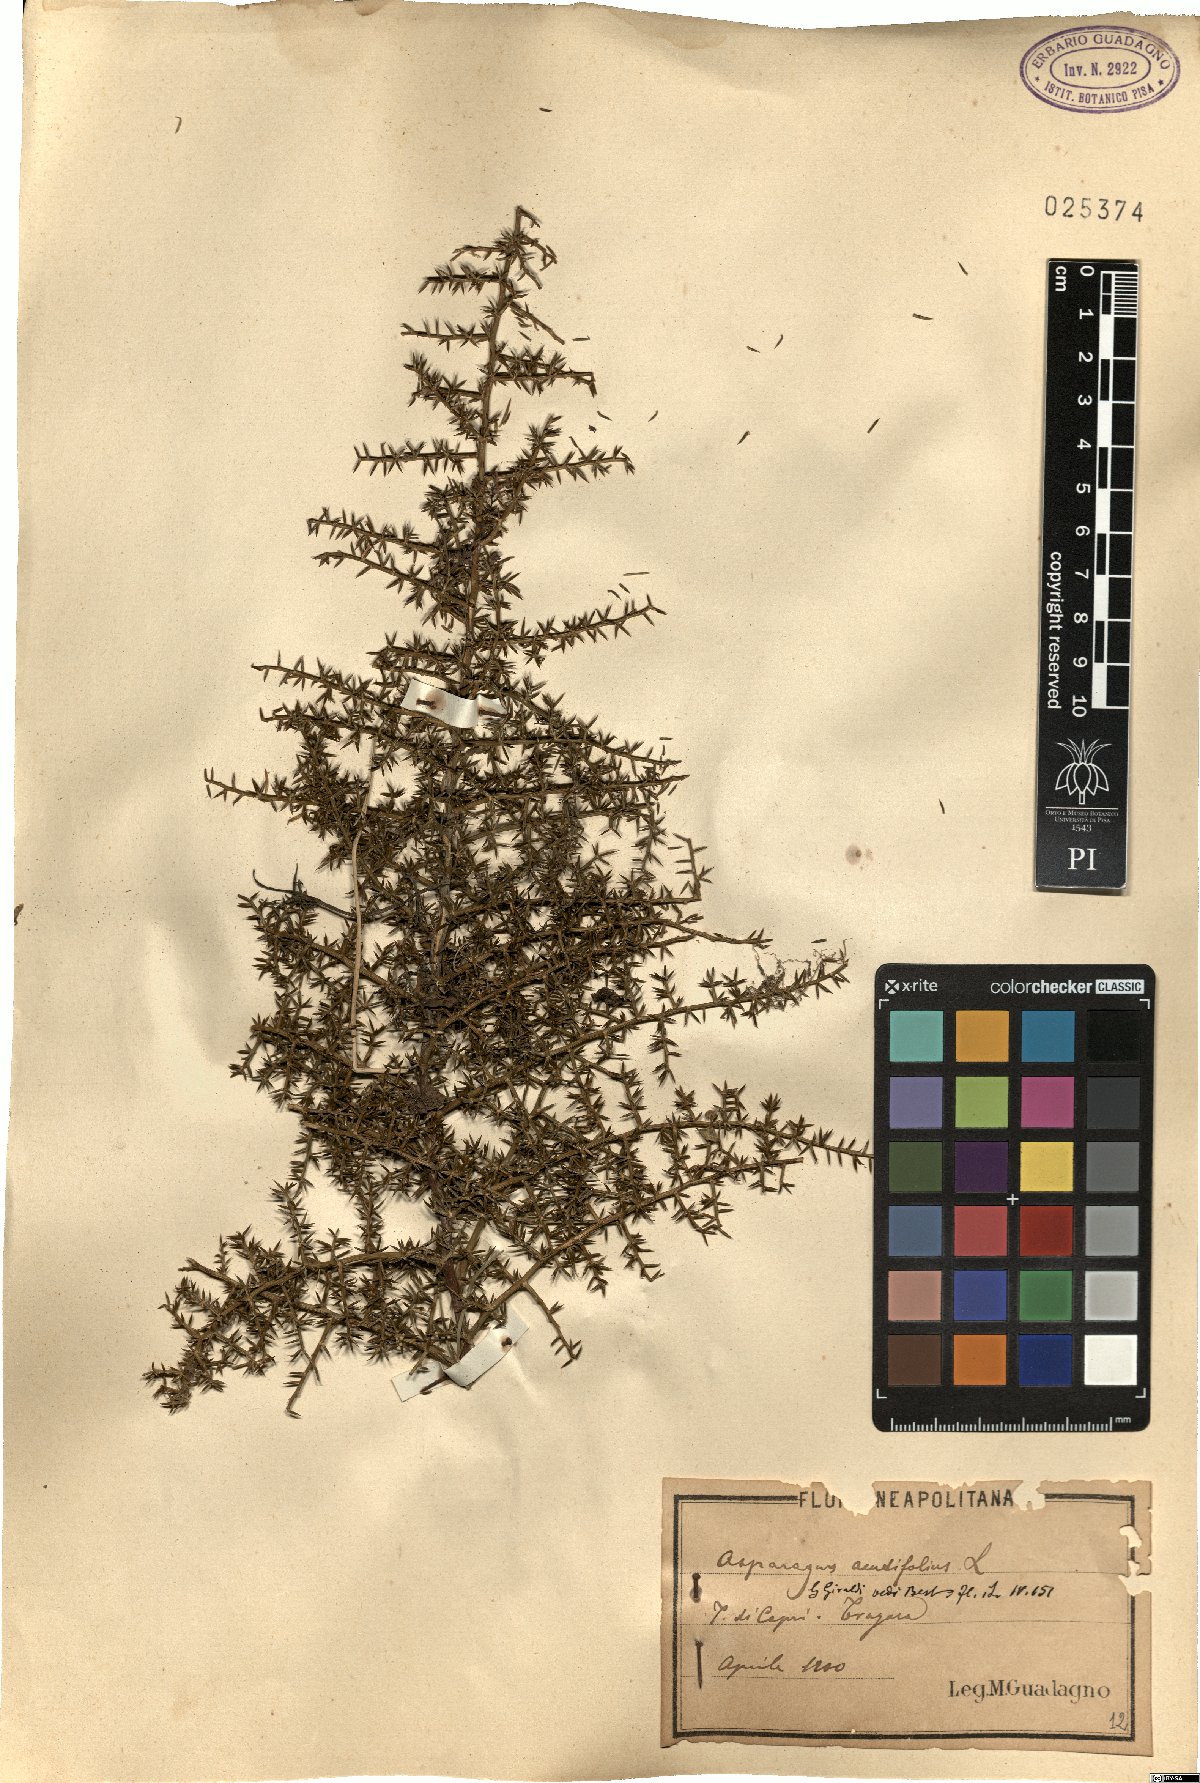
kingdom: Plantae
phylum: Tracheophyta
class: Liliopsida
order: Asparagales
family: Asparagaceae
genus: Asparagus
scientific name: Asparagus acutifolius
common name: Wild asparagus
